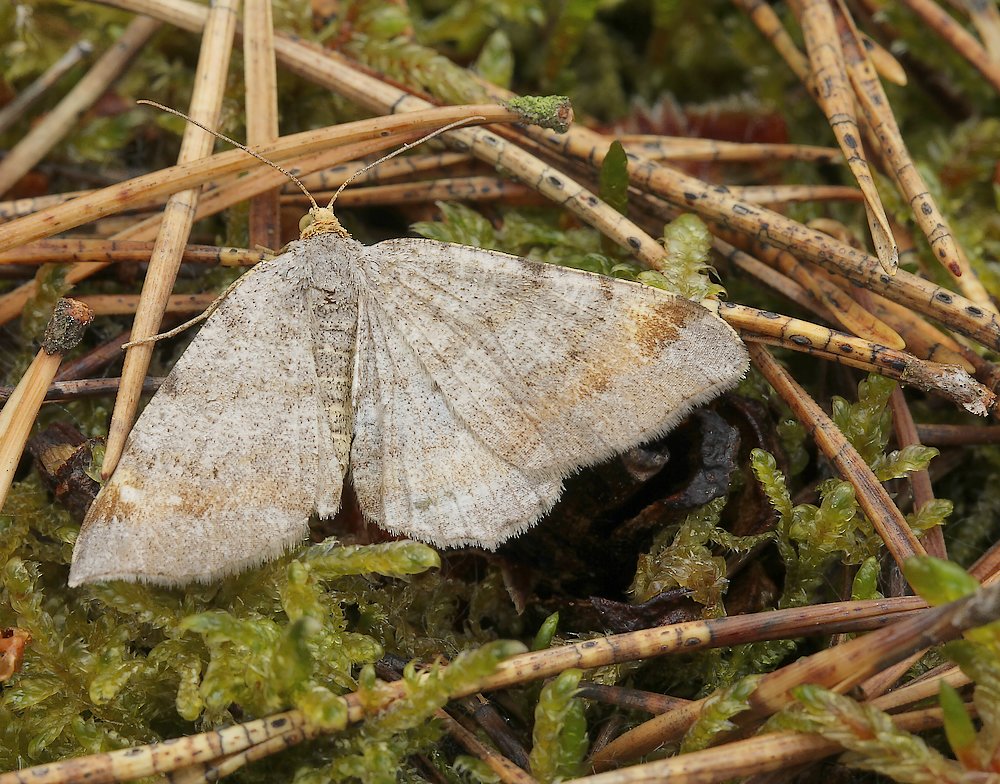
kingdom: Fungi
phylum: Ascomycota
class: Leotiomycetes
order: Rhytismatales
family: Rhytismataceae
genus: Lophodermium
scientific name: Lophodermium pinastri
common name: fyrre-fureplet
